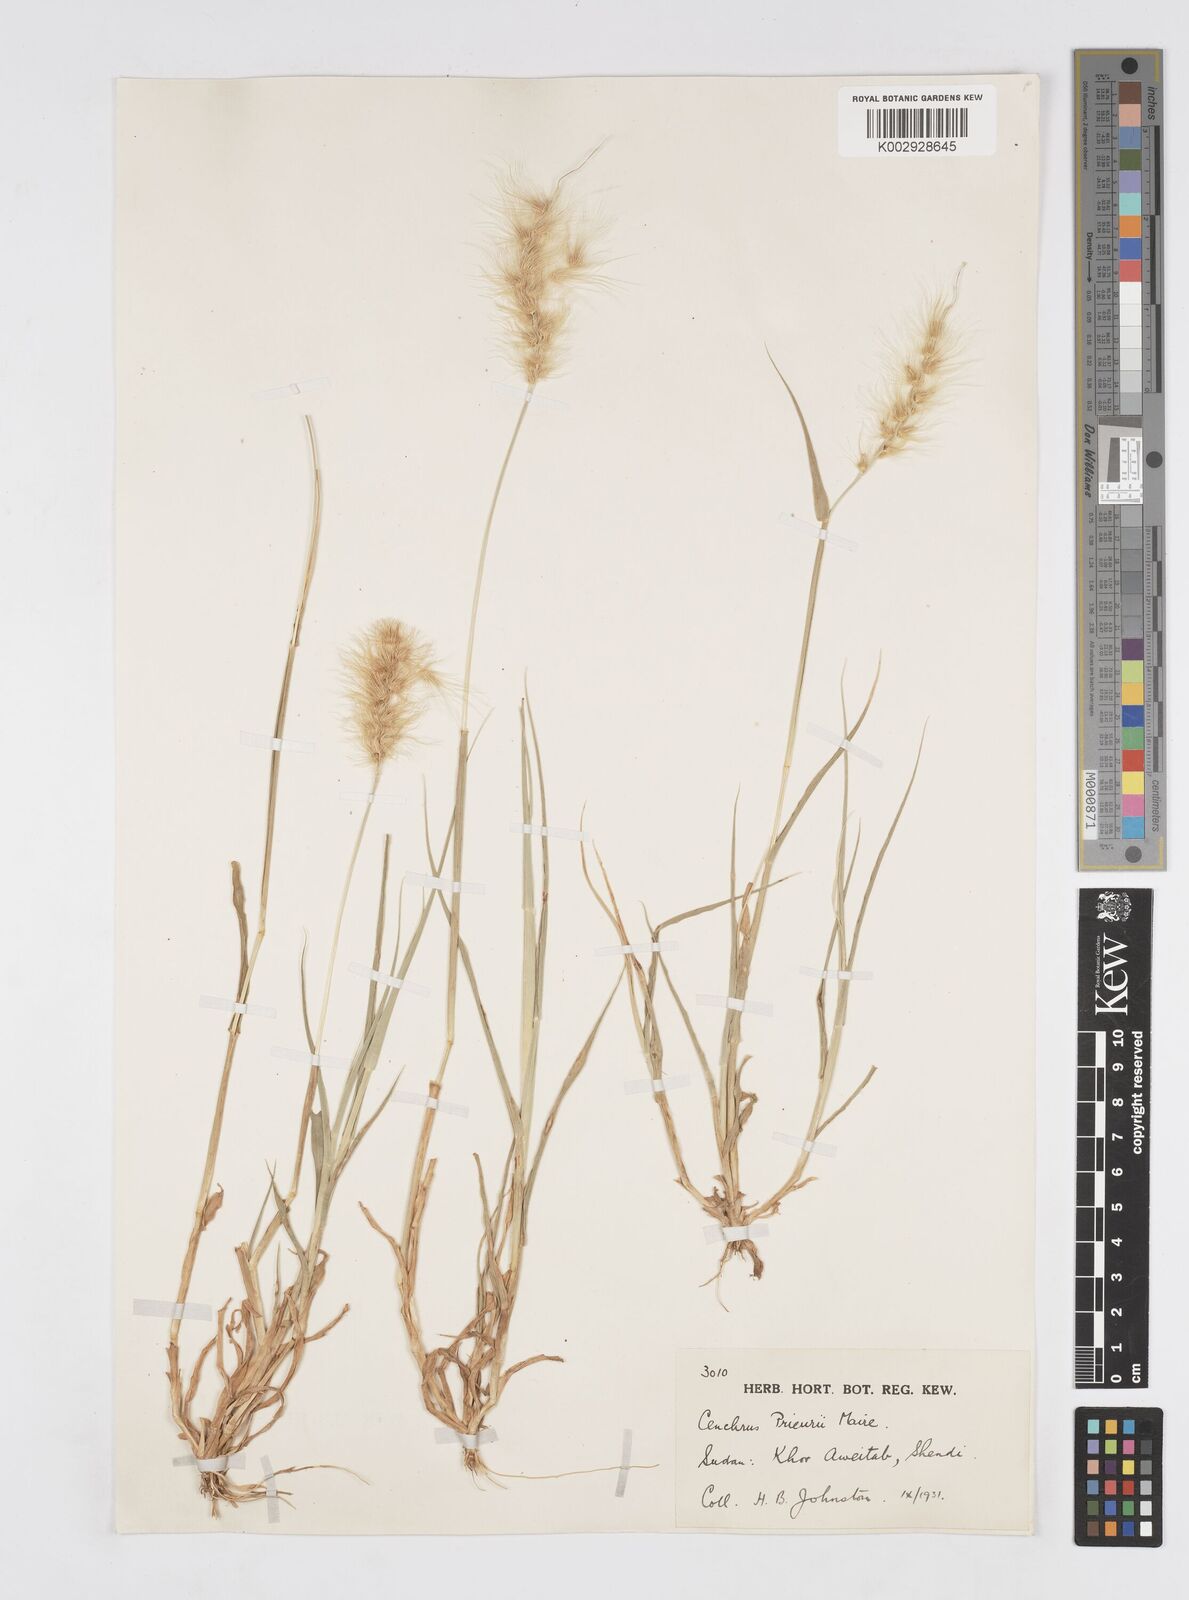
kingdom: Plantae
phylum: Tracheophyta
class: Liliopsida
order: Poales
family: Poaceae
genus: Cenchrus
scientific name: Cenchrus prieurii
